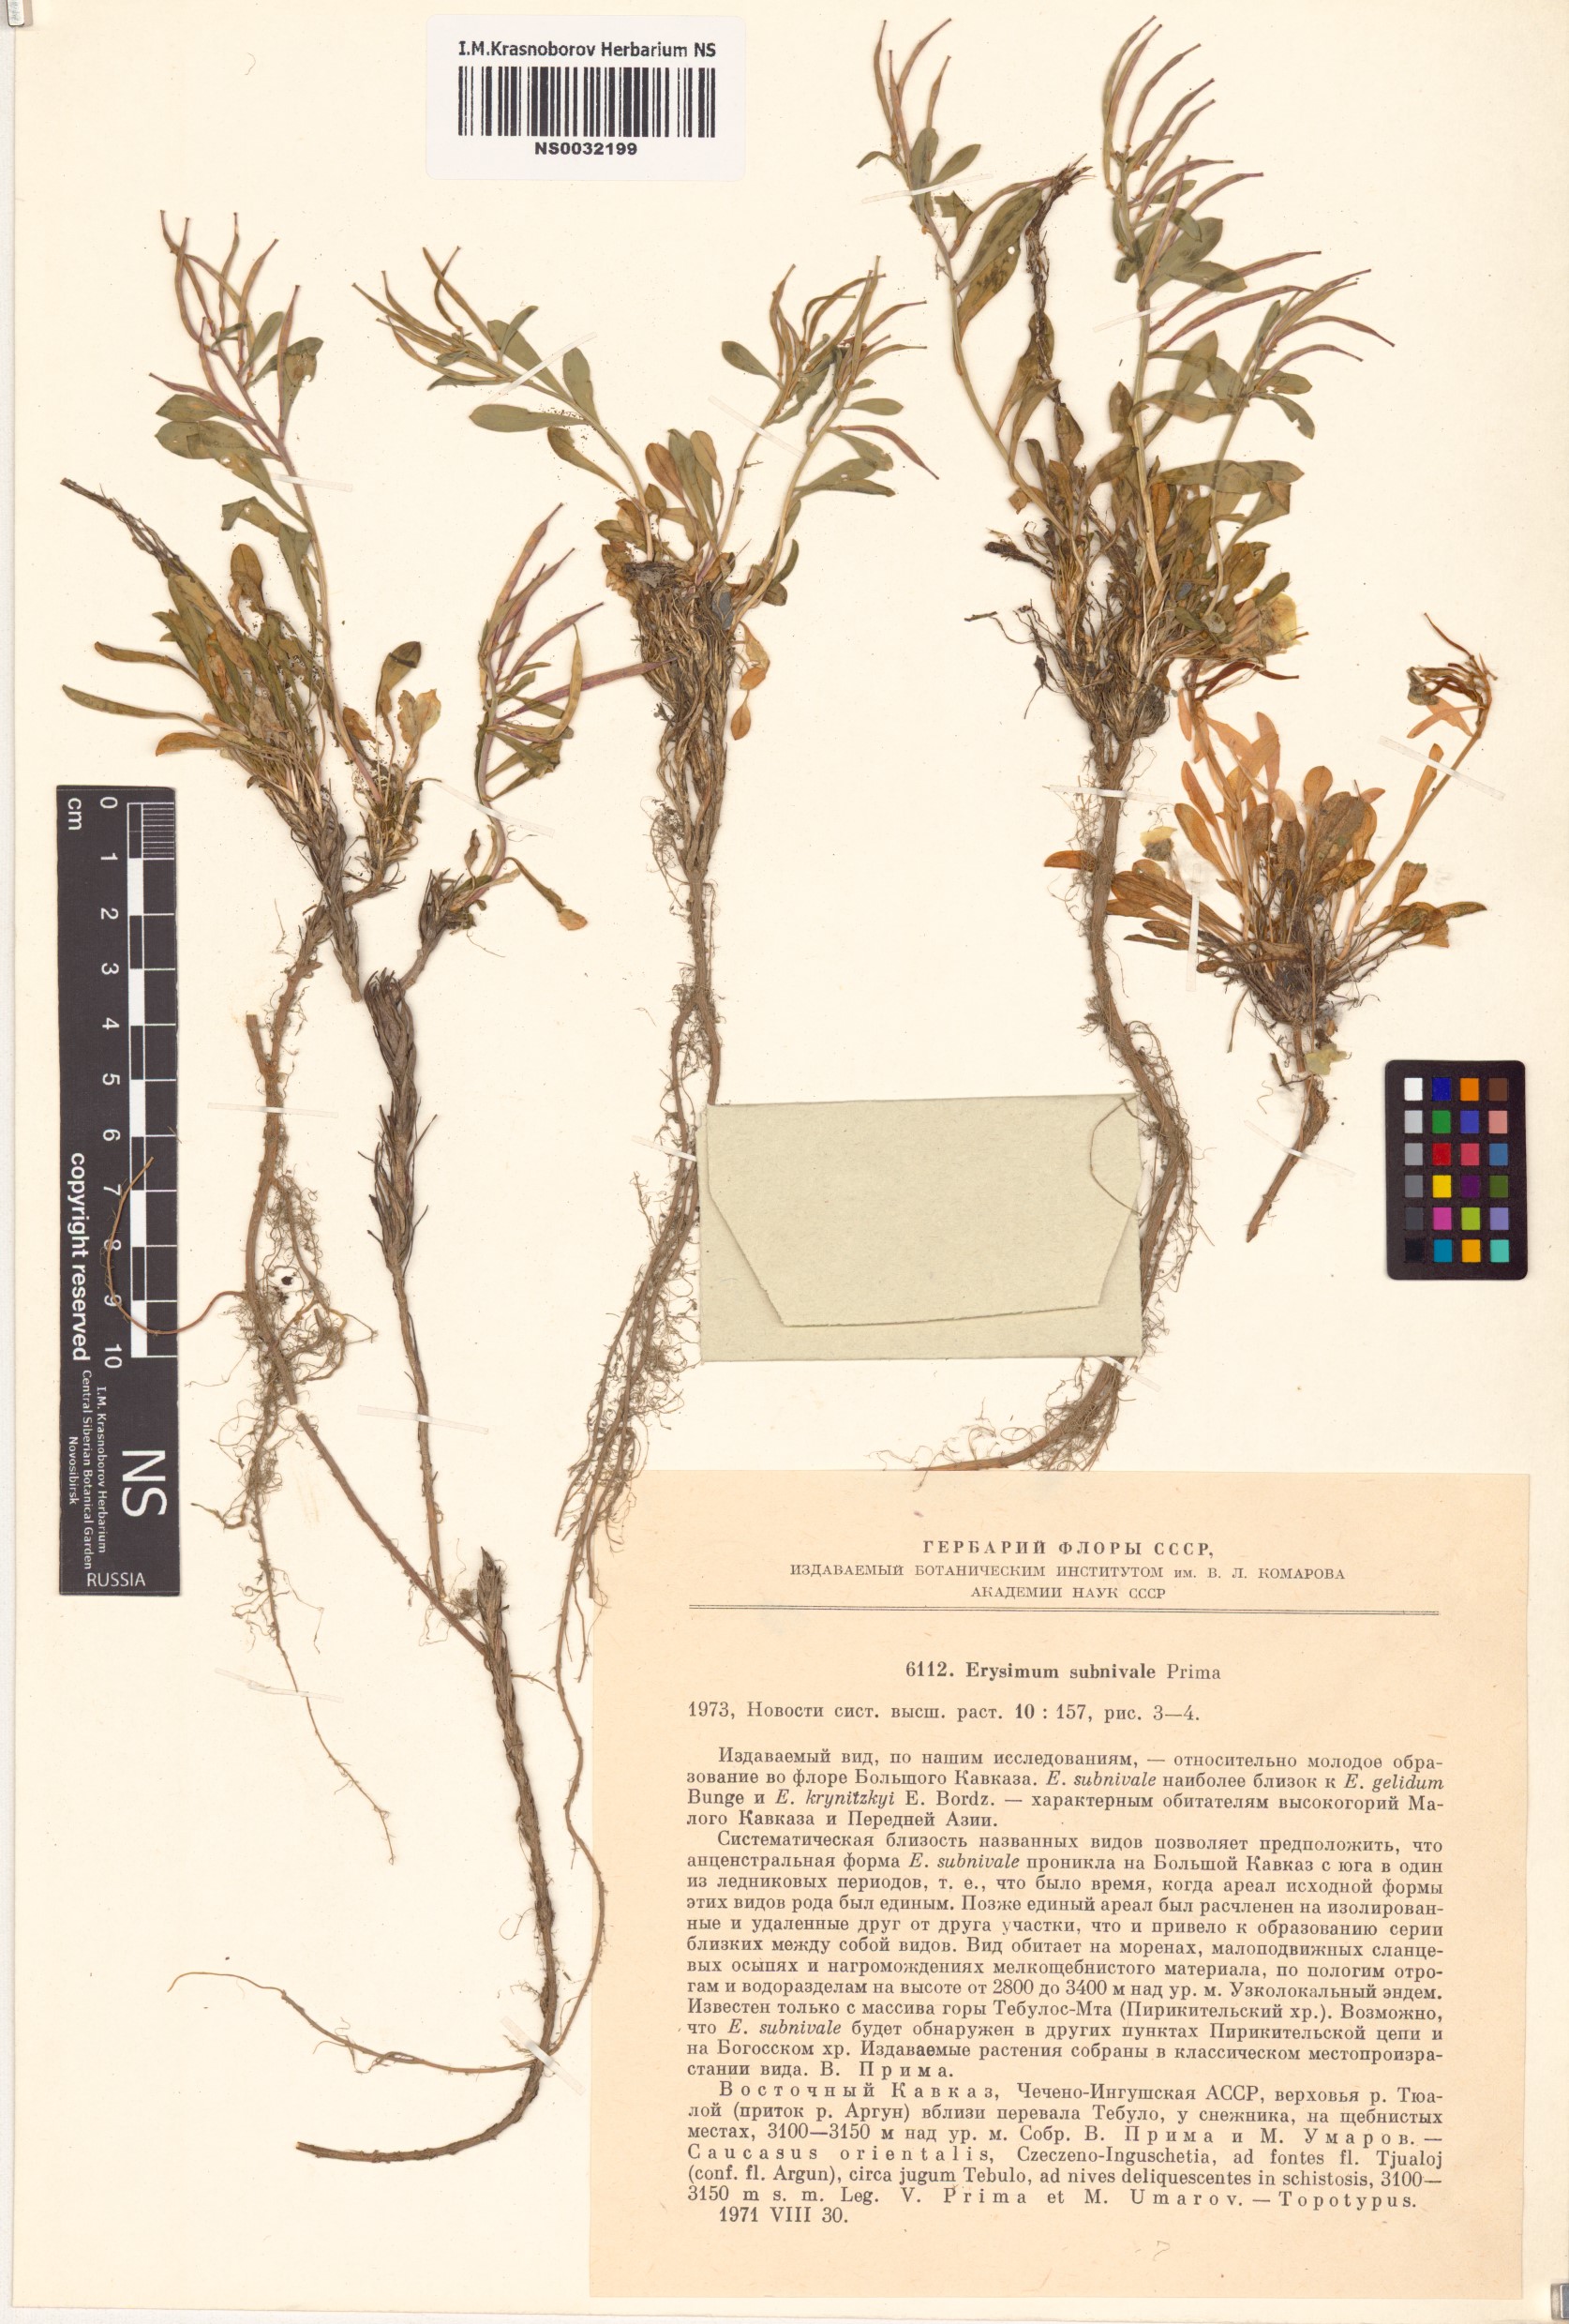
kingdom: Plantae
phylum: Tracheophyta
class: Magnoliopsida
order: Brassicales
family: Brassicaceae
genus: Erysimum
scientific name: Erysimum krynitzkii
